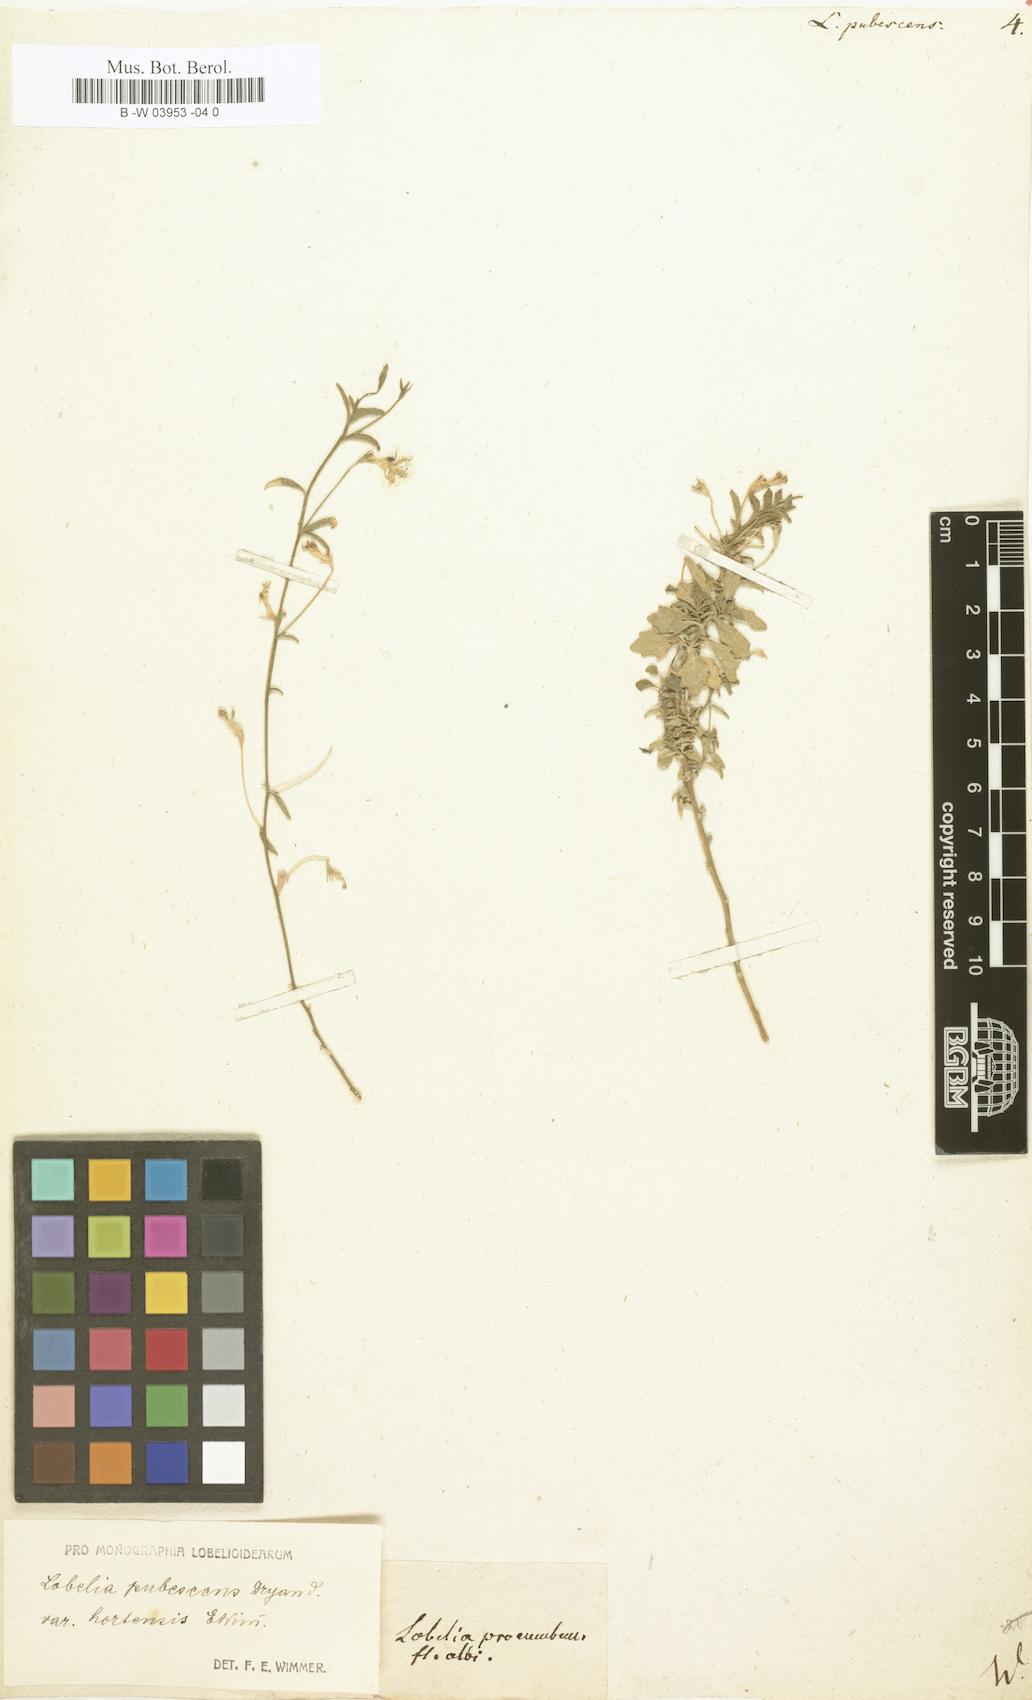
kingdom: Plantae
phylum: Tracheophyta
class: Magnoliopsida
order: Asterales
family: Campanulaceae
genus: Lobelia
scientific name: Lobelia pubescens
